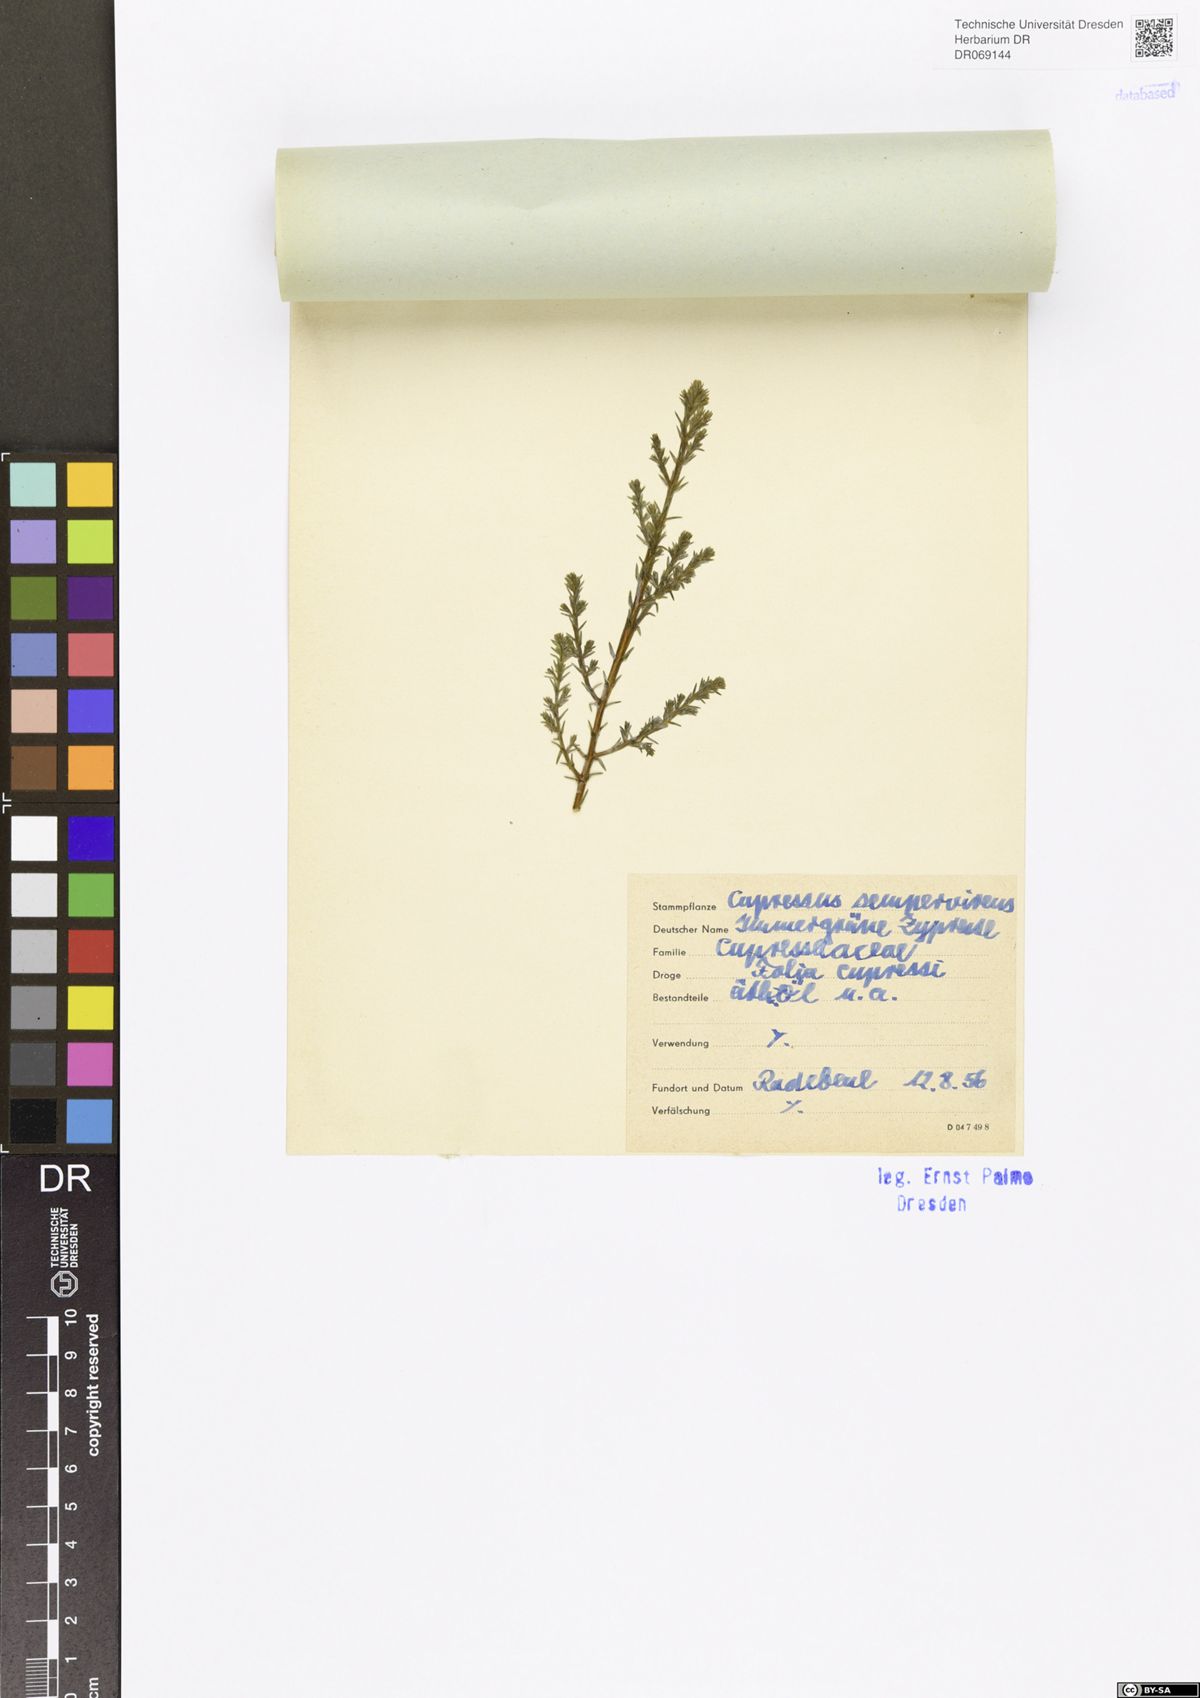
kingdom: Plantae
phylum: Tracheophyta
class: Pinopsida
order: Pinales
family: Cupressaceae
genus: Cupressus
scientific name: Cupressus sempervirens
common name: Italian cypress
